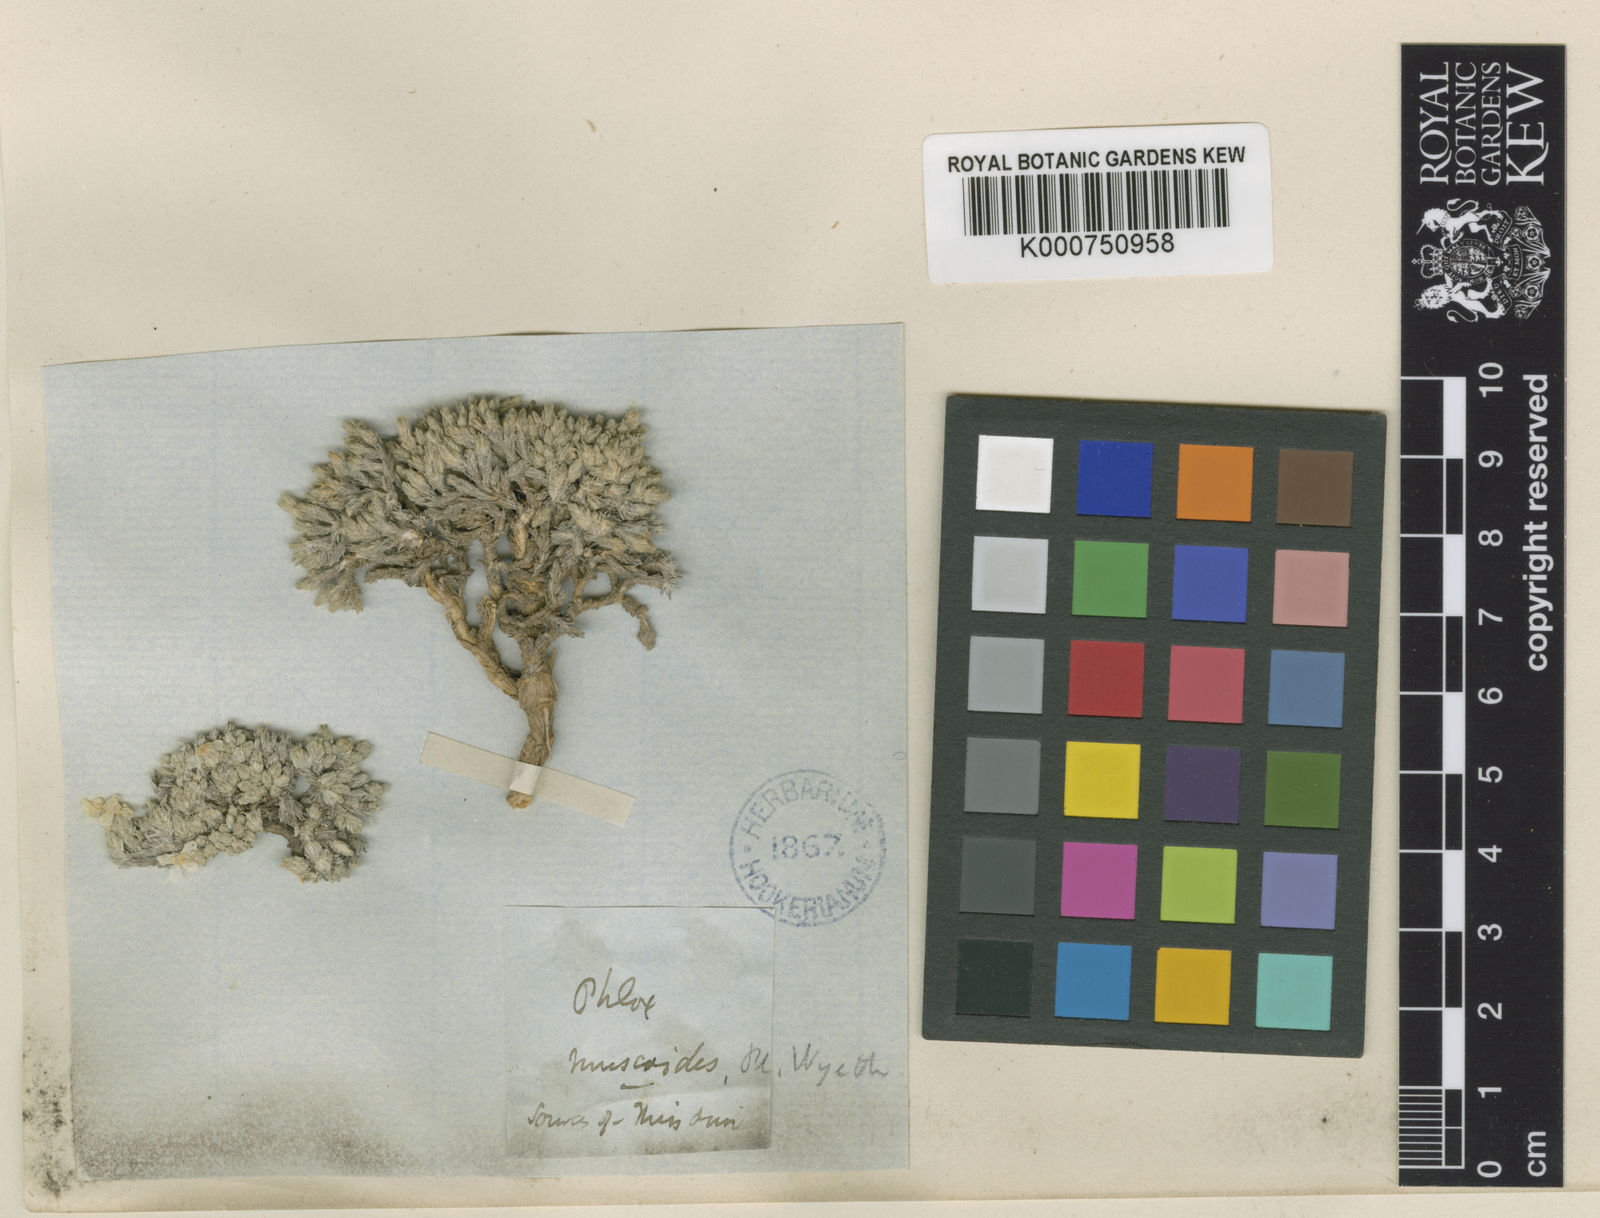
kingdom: Plantae
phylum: Tracheophyta
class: Magnoliopsida
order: Ericales
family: Polemoniaceae
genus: Phlox
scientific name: Phlox
